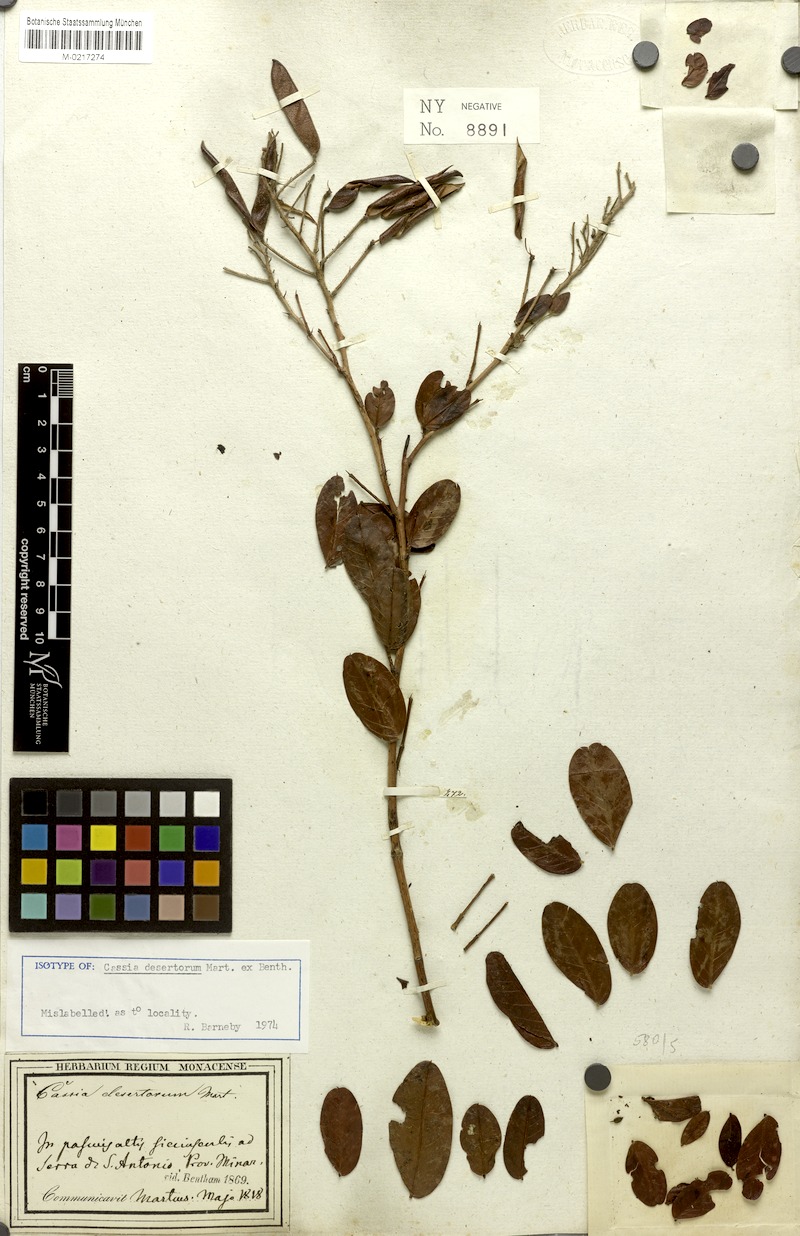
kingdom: Plantae
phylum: Tracheophyta
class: Magnoliopsida
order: Fabales
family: Fabaceae
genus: Chamaecrista
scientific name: Chamaecrista desertorum
